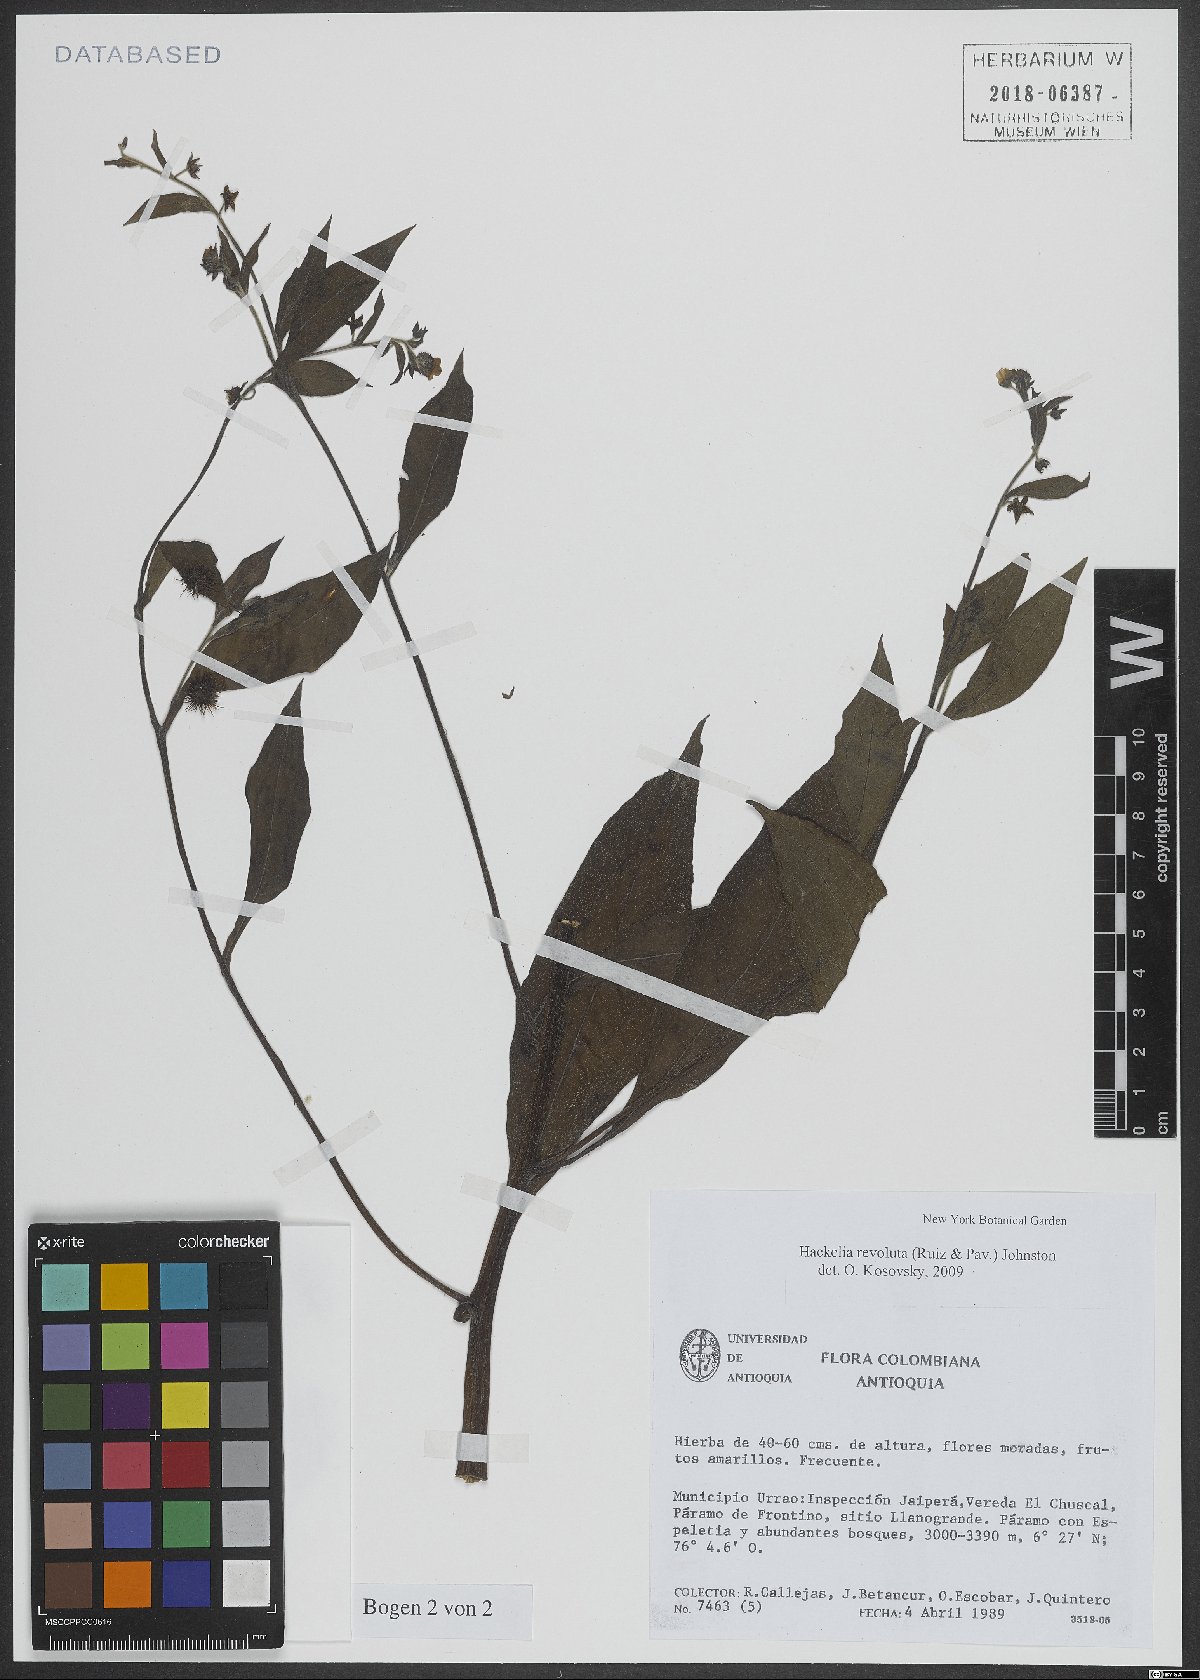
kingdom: Plantae
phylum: Tracheophyta
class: Magnoliopsida
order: Boraginales
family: Boraginaceae
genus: Hackelia
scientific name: Hackelia revoluta
